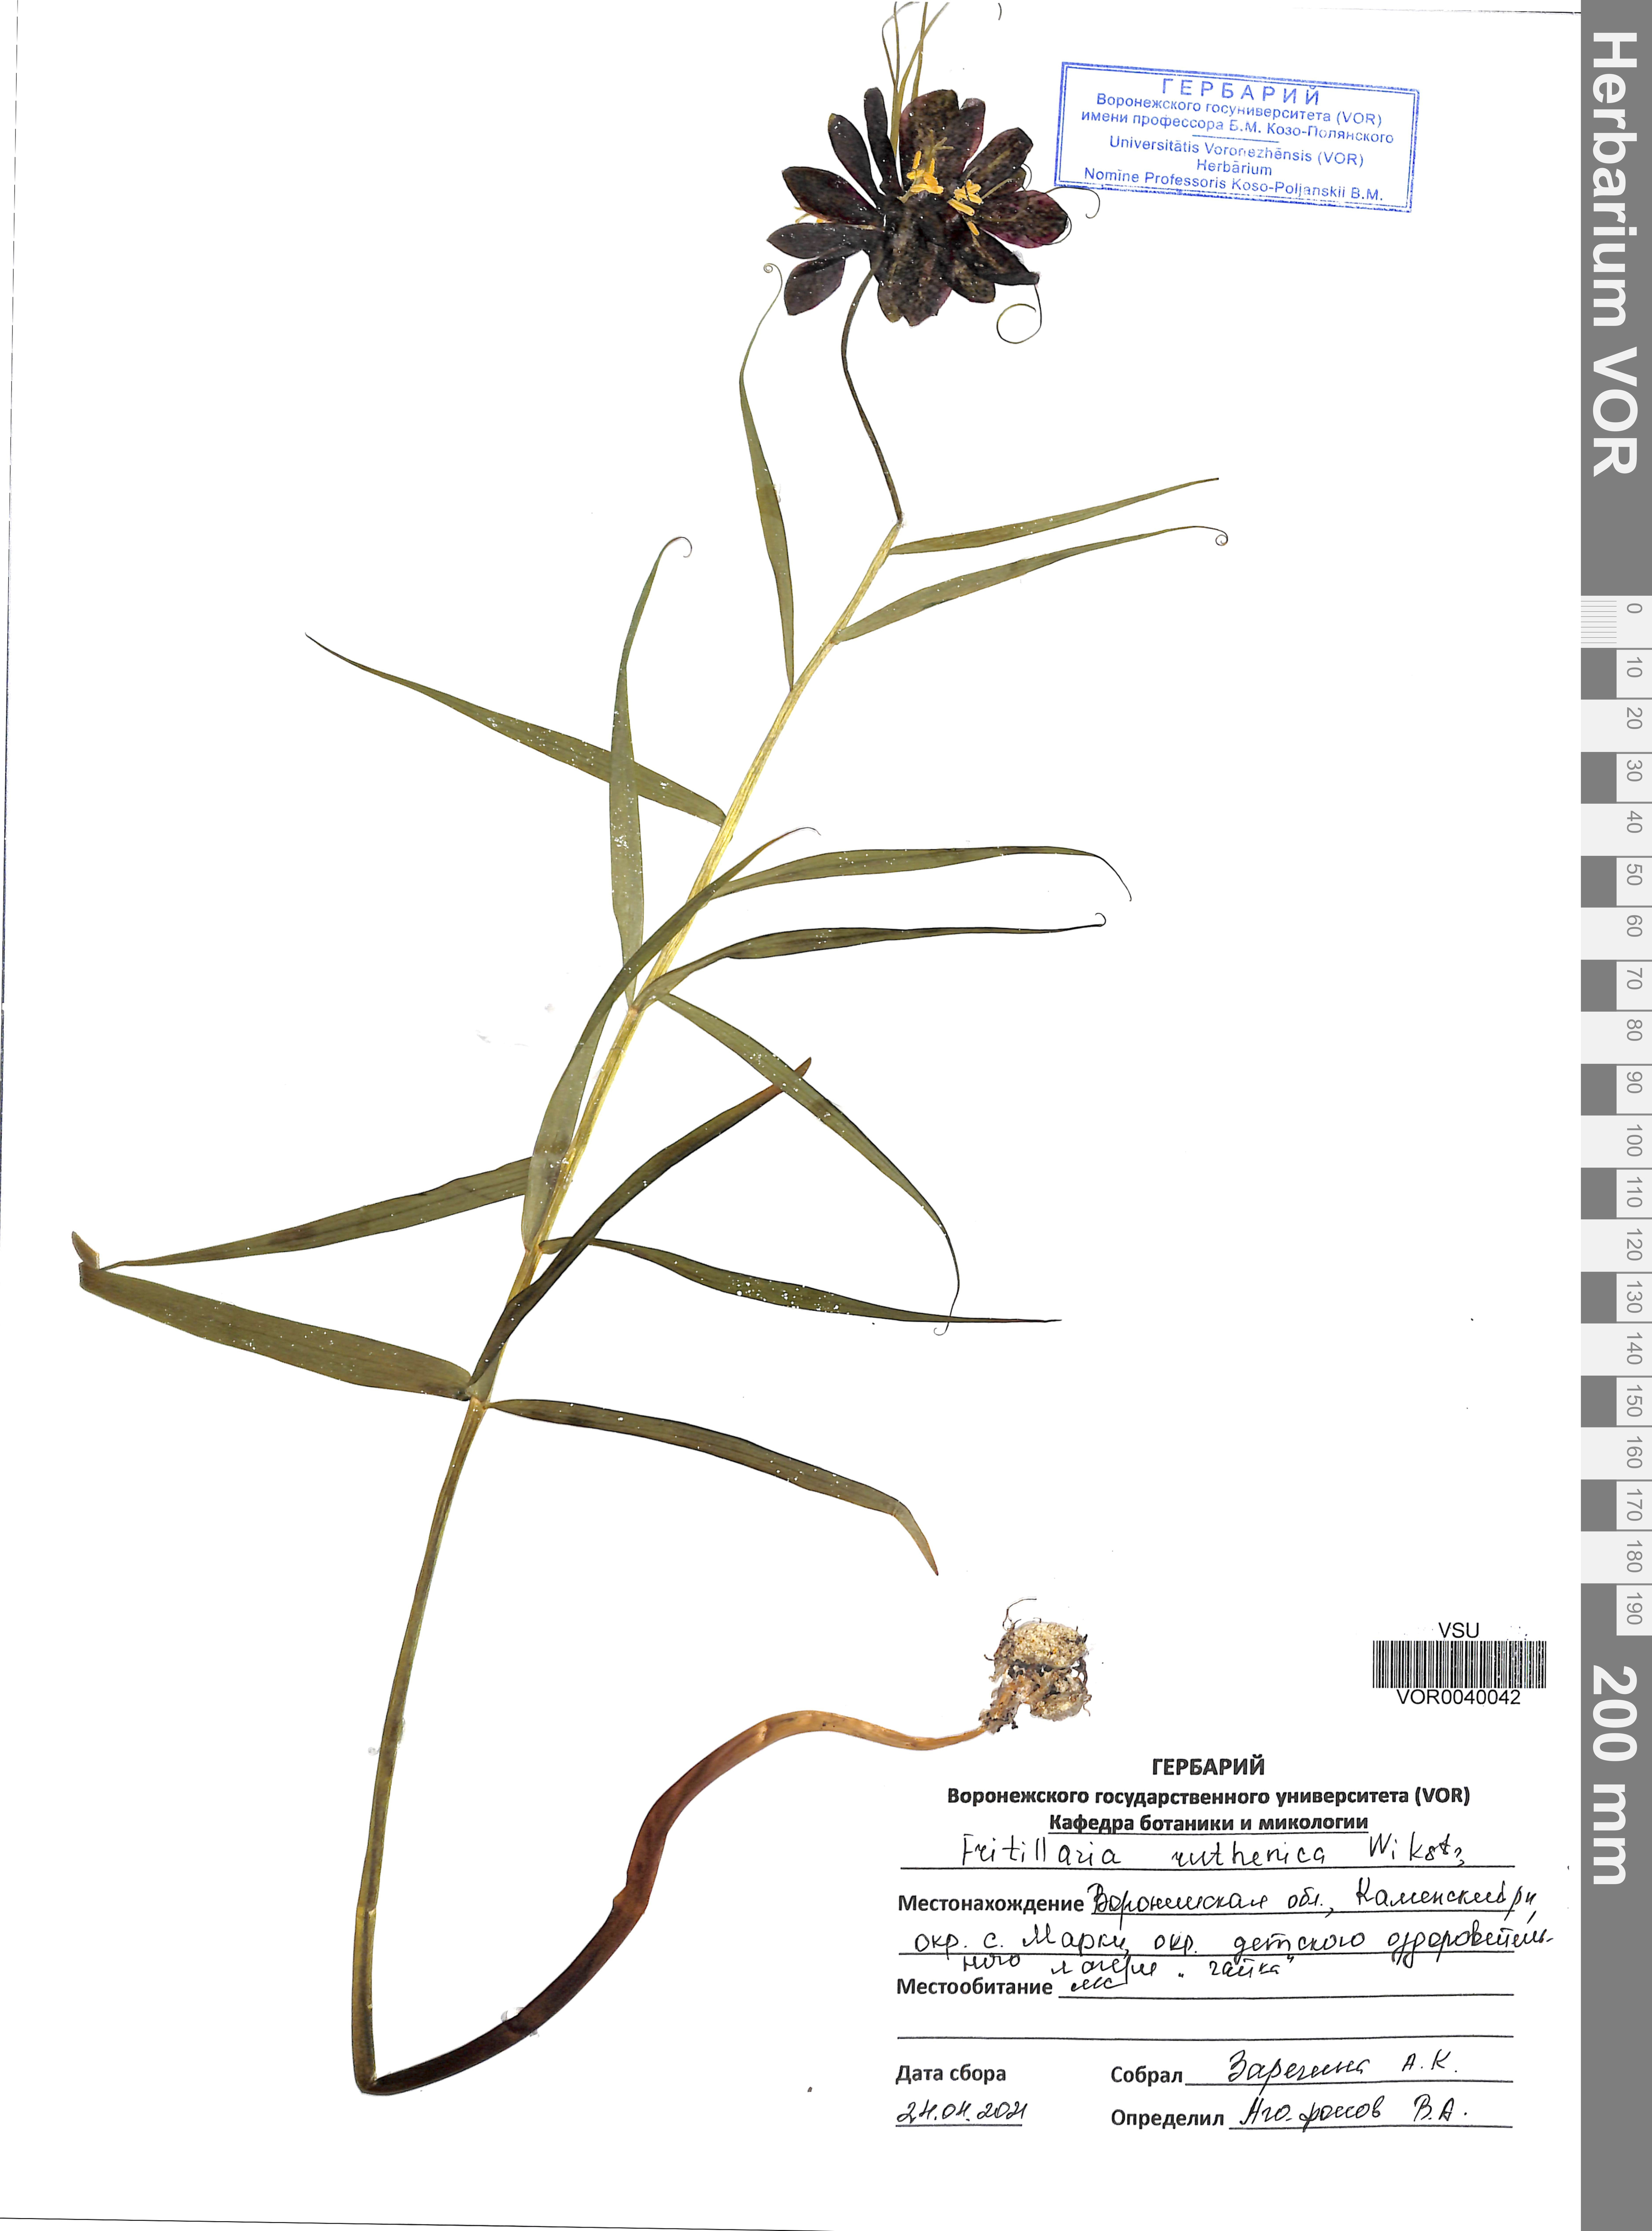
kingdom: Plantae
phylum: Tracheophyta
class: Liliopsida
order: Liliales
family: Liliaceae
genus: Fritillaria
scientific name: Fritillaria ruthenica
